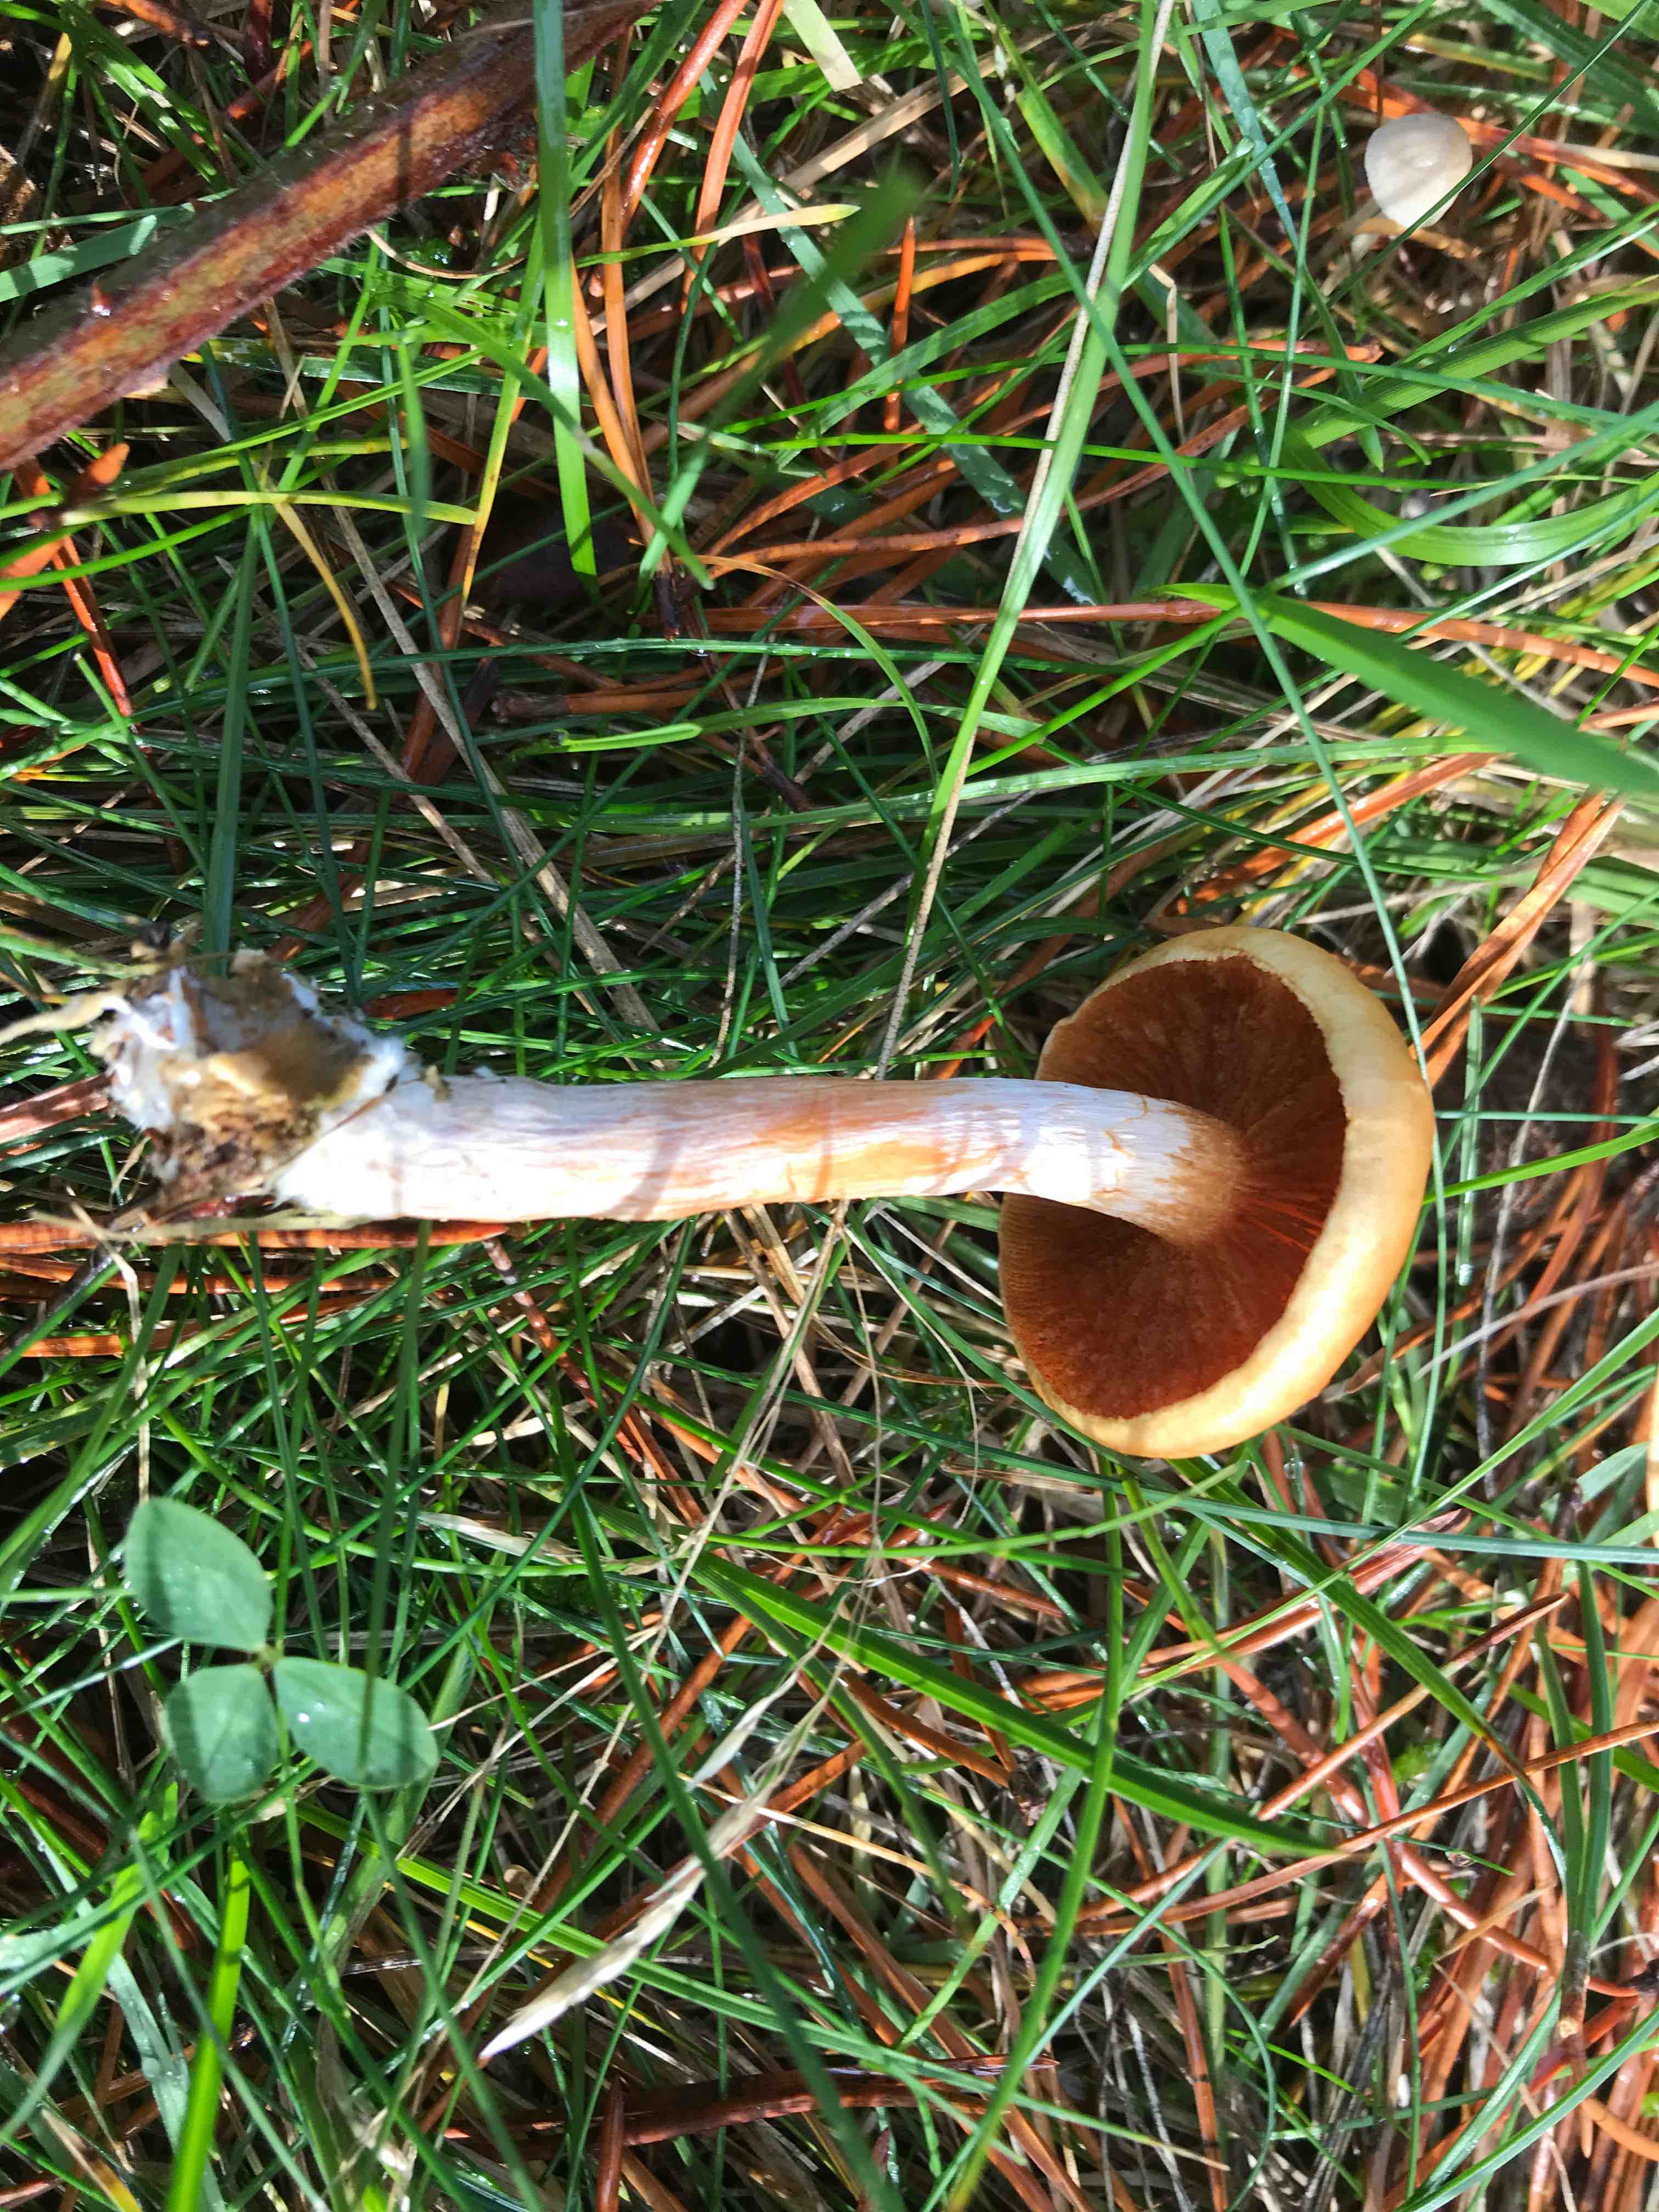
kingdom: Fungi
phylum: Basidiomycota
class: Agaricomycetes
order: Agaricales
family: Hymenogastraceae
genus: Gymnopilus
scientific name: Gymnopilus penetrans
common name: plettet flammehat
